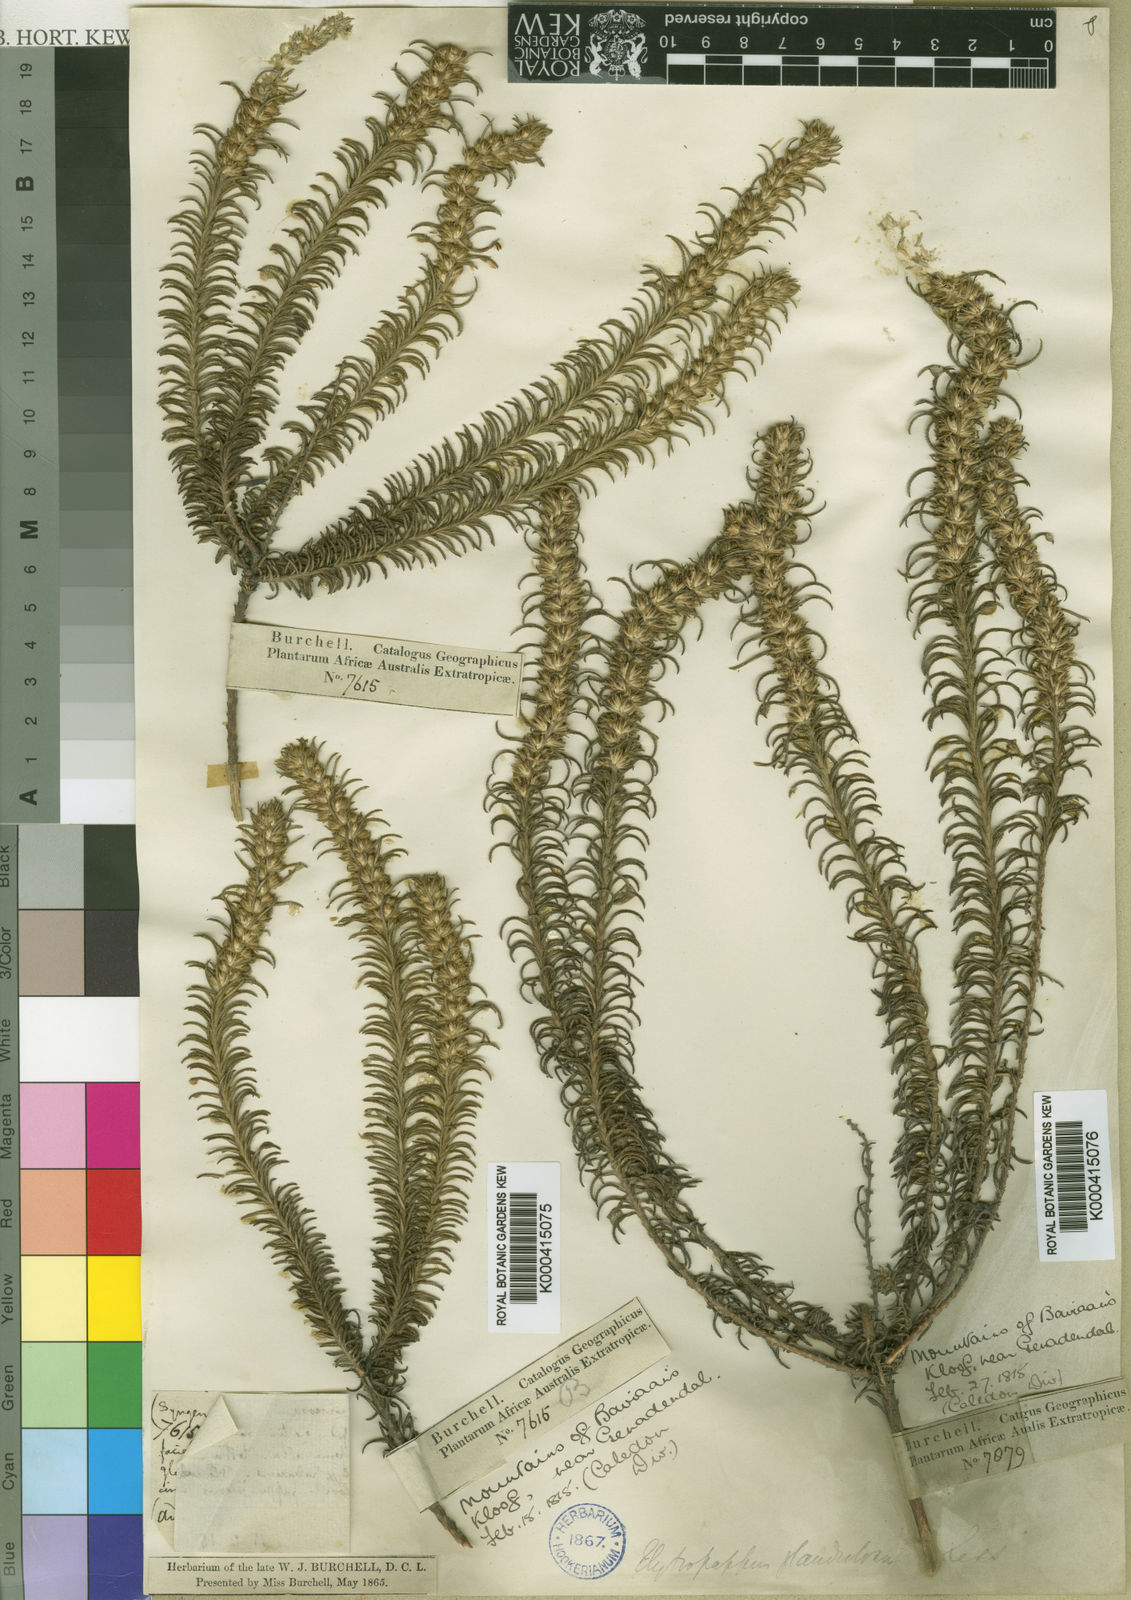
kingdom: Plantae
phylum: Tracheophyta
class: Magnoliopsida
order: Asterales
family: Asteraceae
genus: Myrovernix
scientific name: Myrovernix scaber
